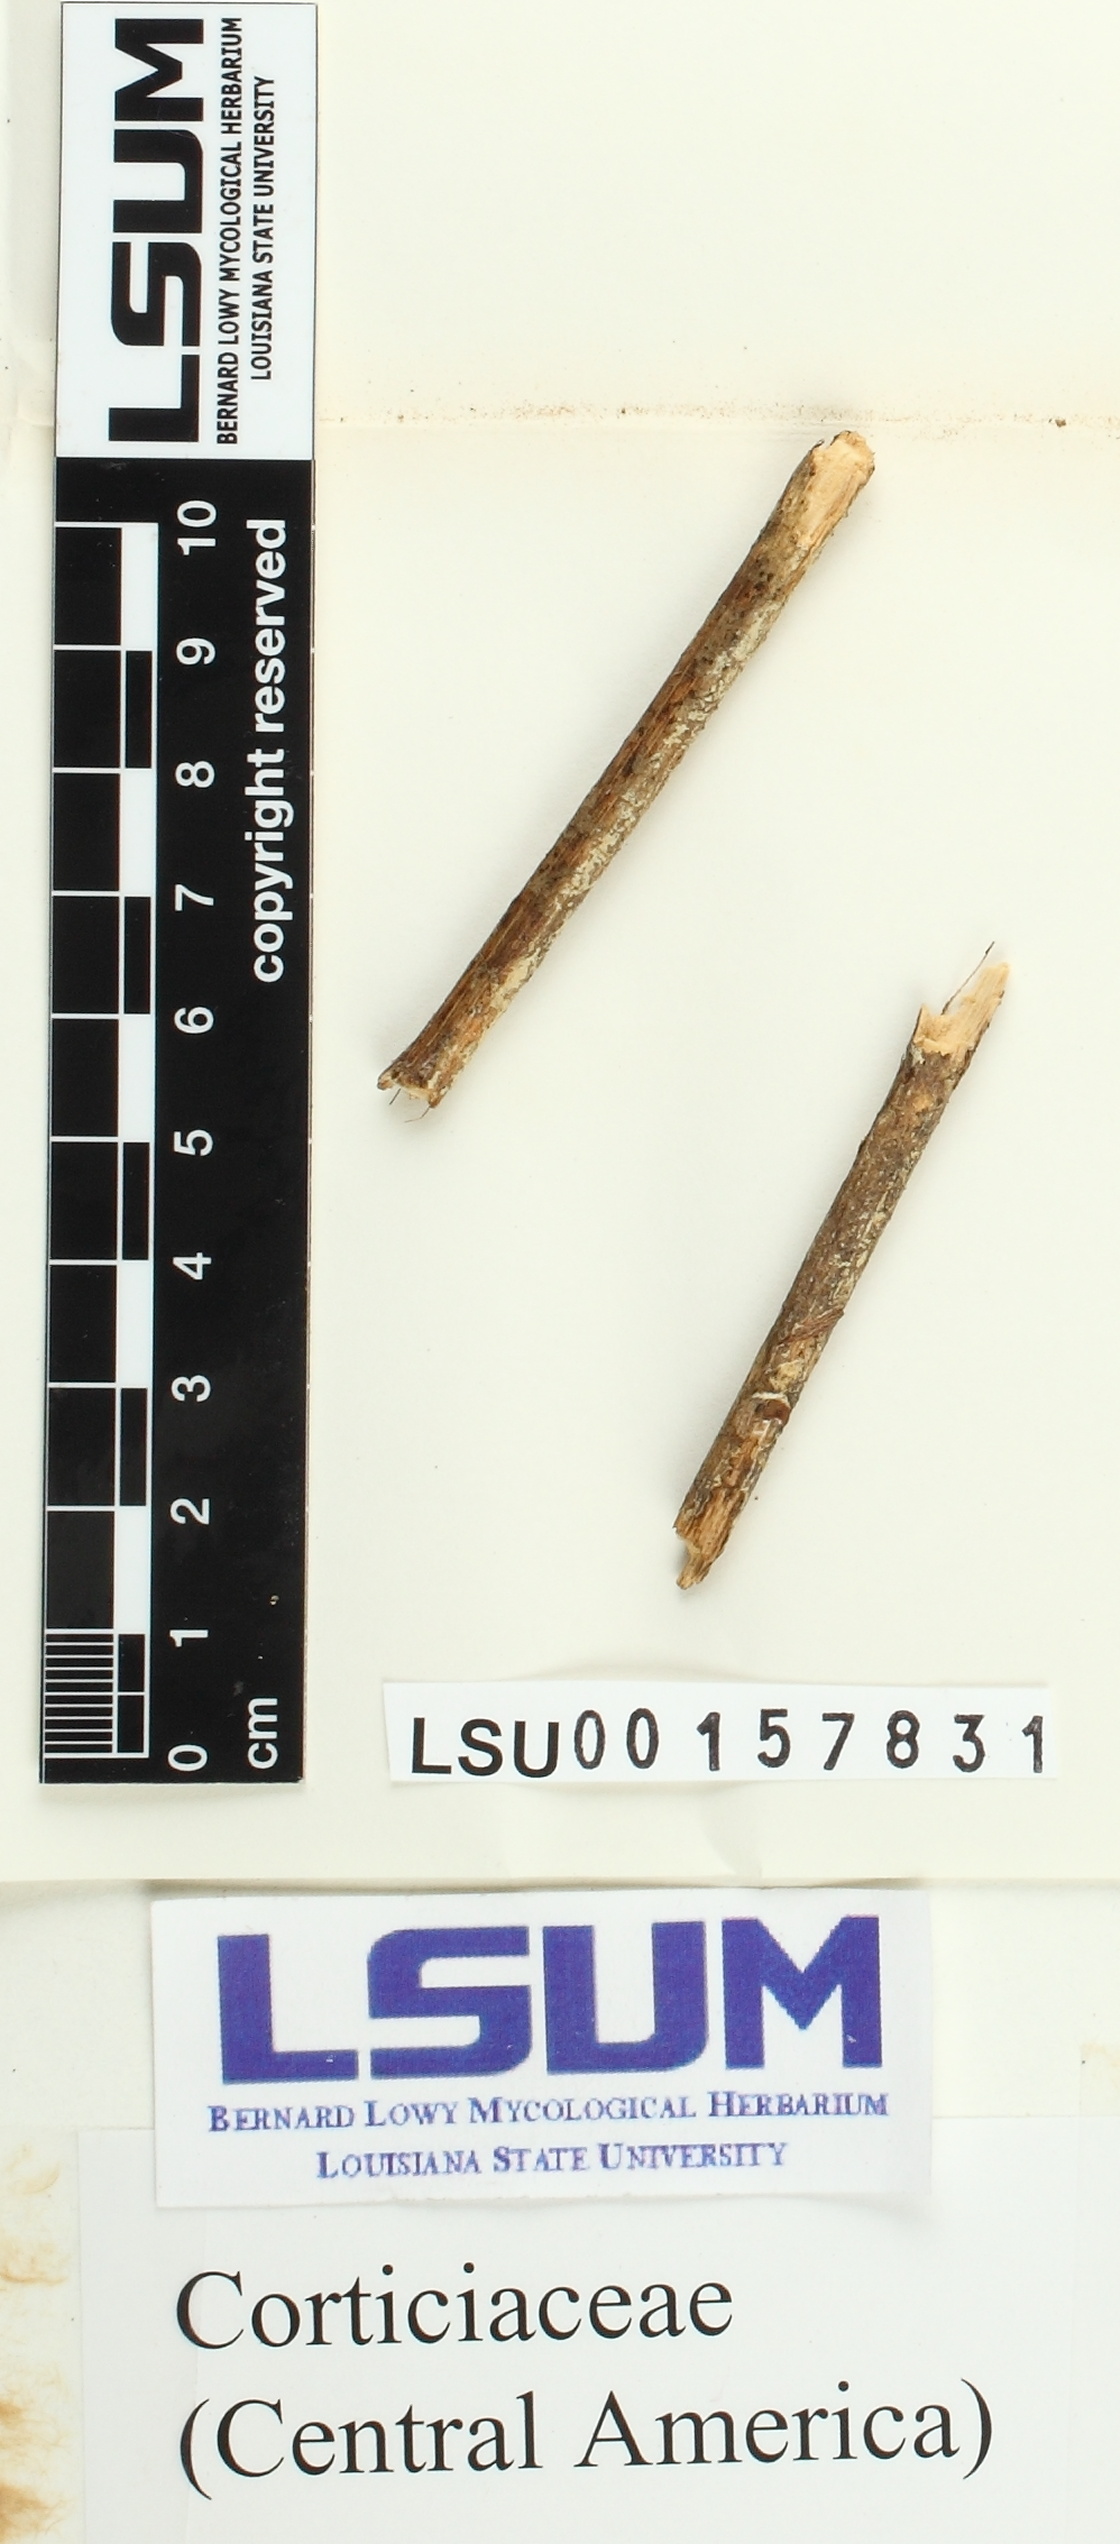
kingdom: Fungi
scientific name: Fungi
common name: Fungi
